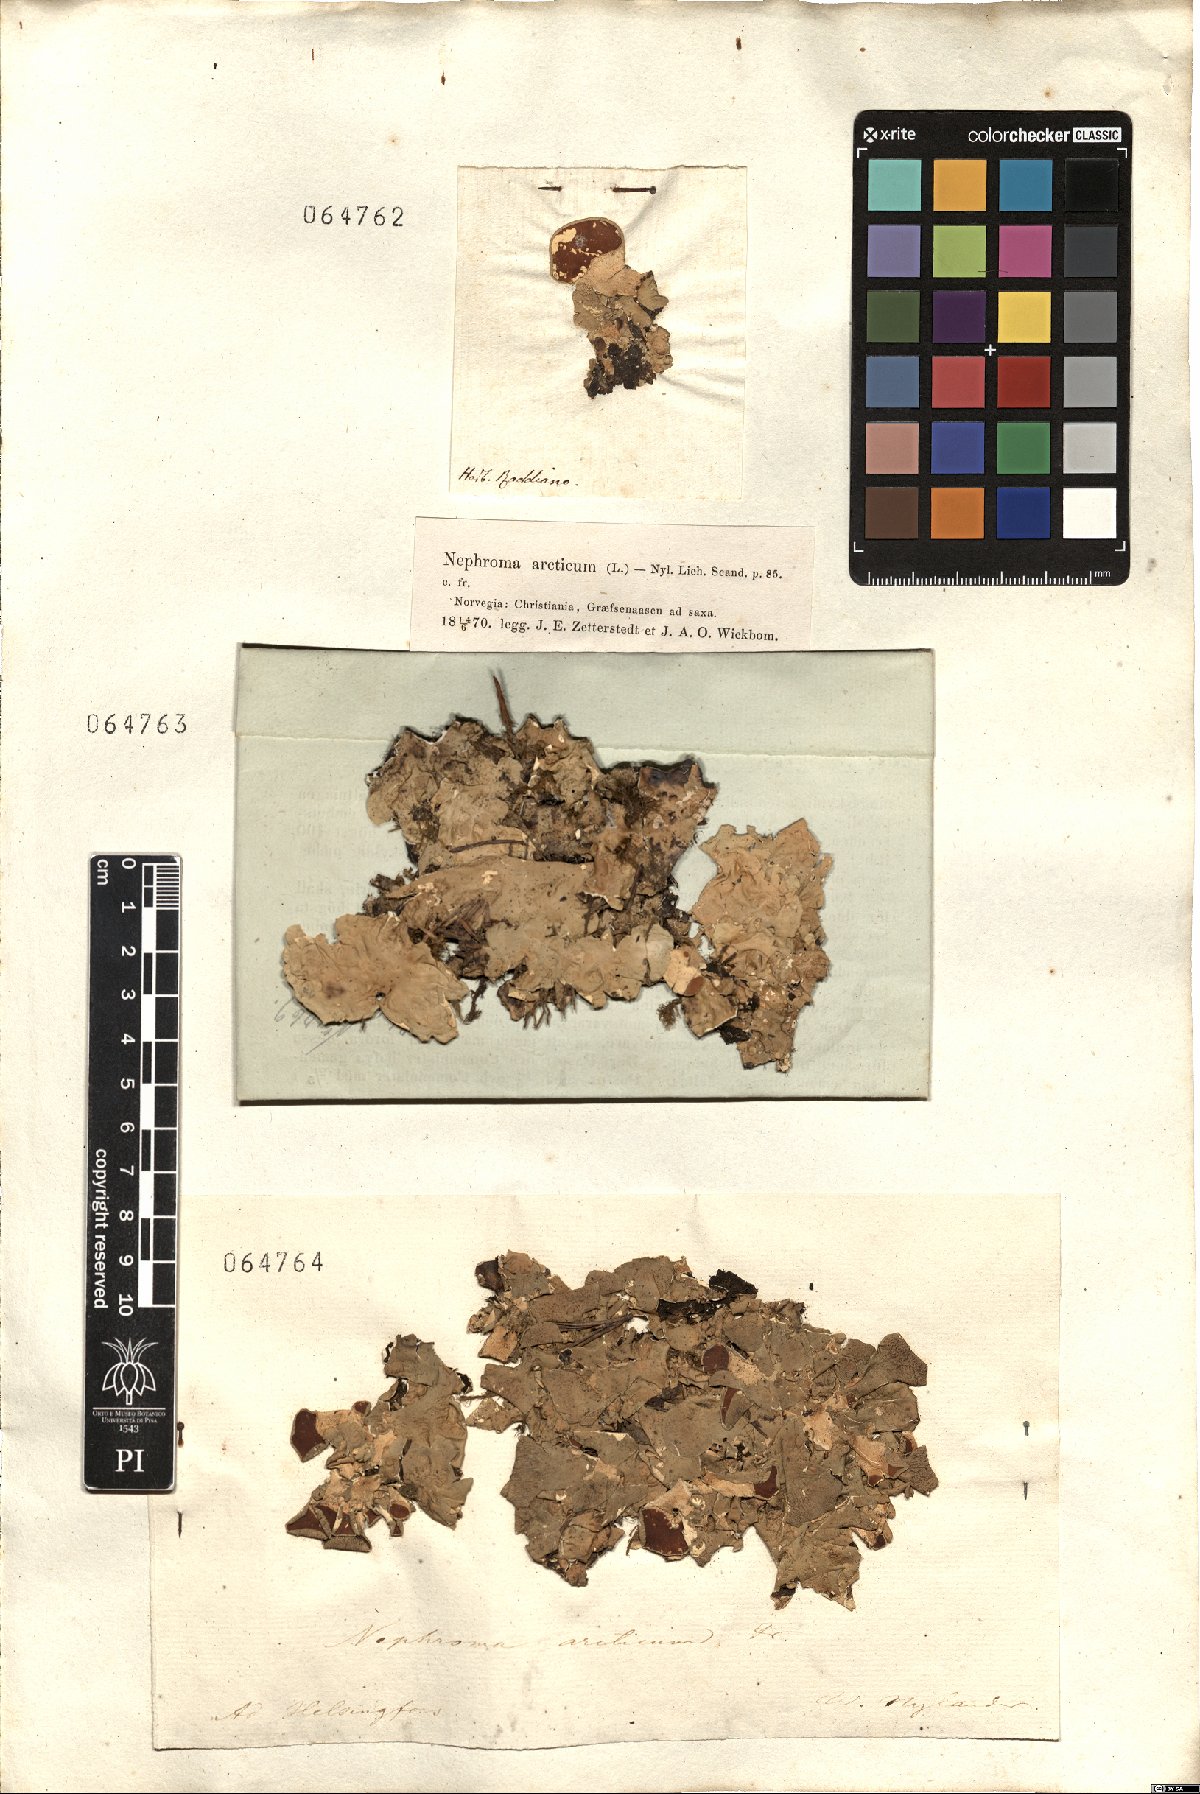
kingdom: Fungi
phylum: Ascomycota
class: Lecanoromycetes
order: Peltigerales
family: Nephromataceae
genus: Nephroma
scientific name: Nephroma arcticum
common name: Arctic kidney-lichen
